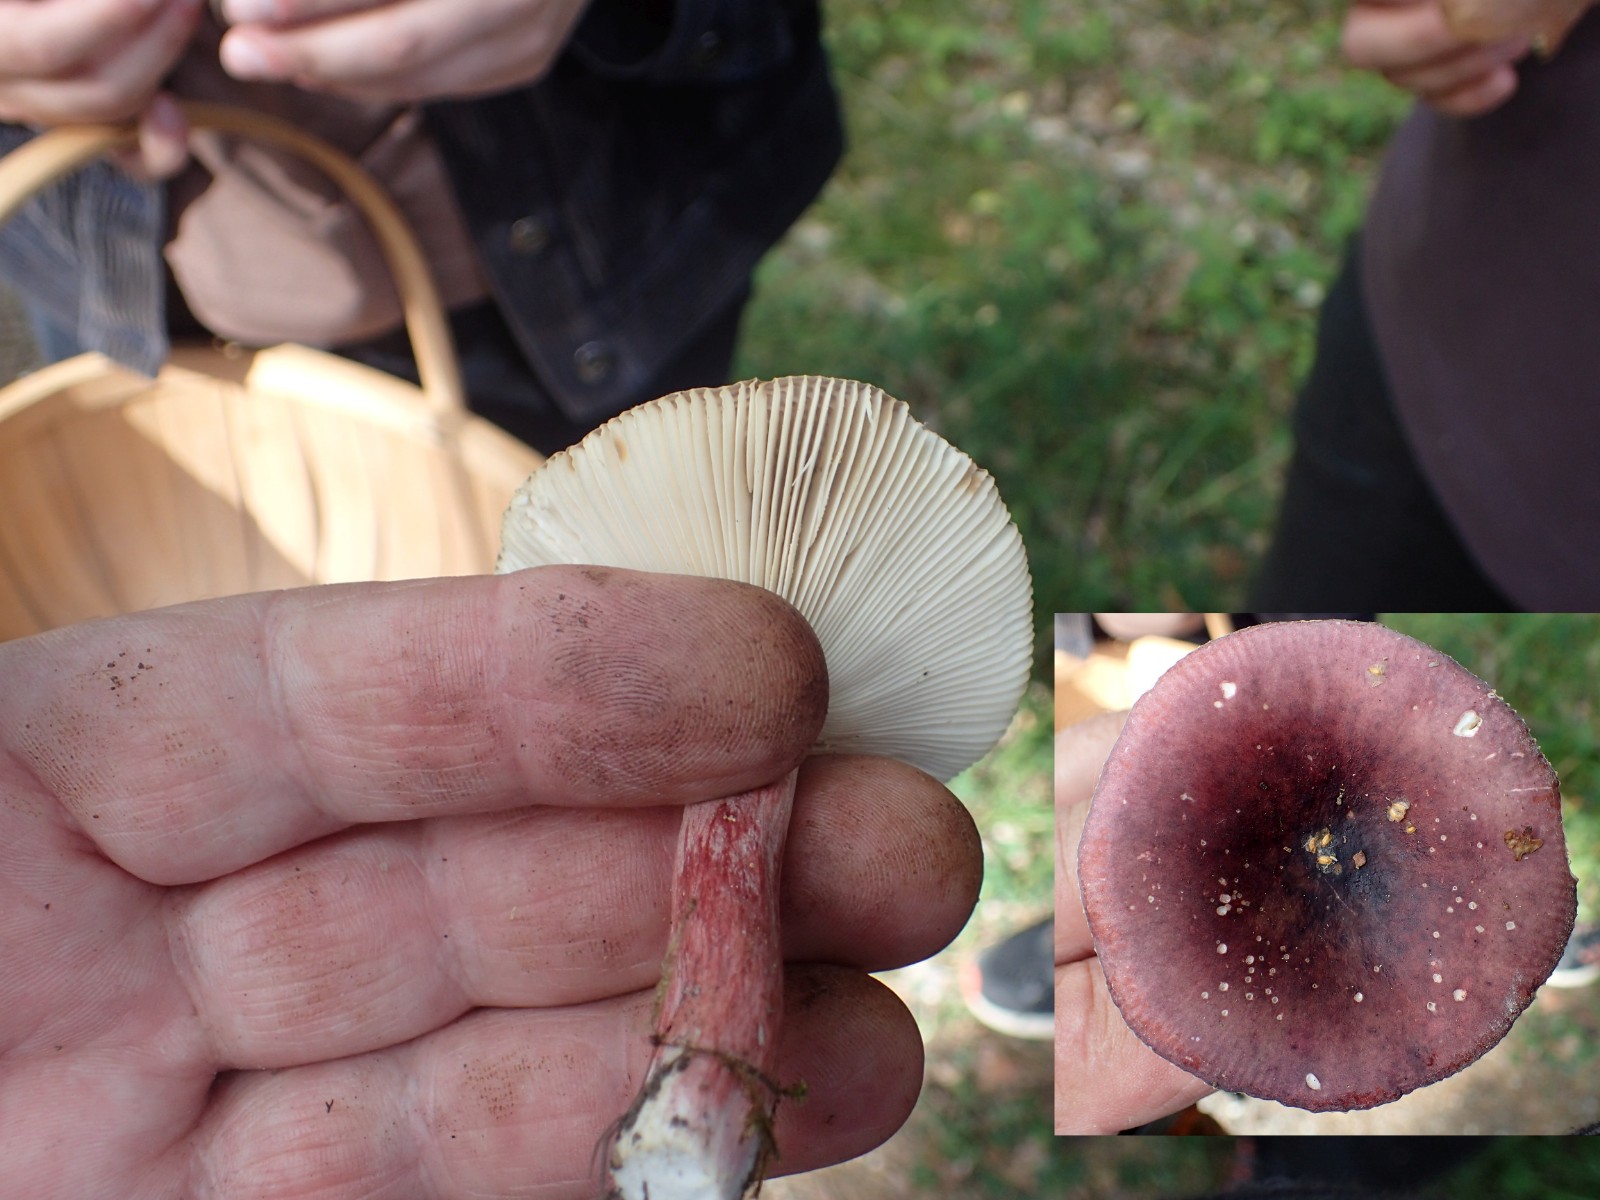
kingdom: Fungi
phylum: Basidiomycota
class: Agaricomycetes
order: Russulales
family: Russulaceae
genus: Russula
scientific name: Russula queletii
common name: Quélets skørhat
